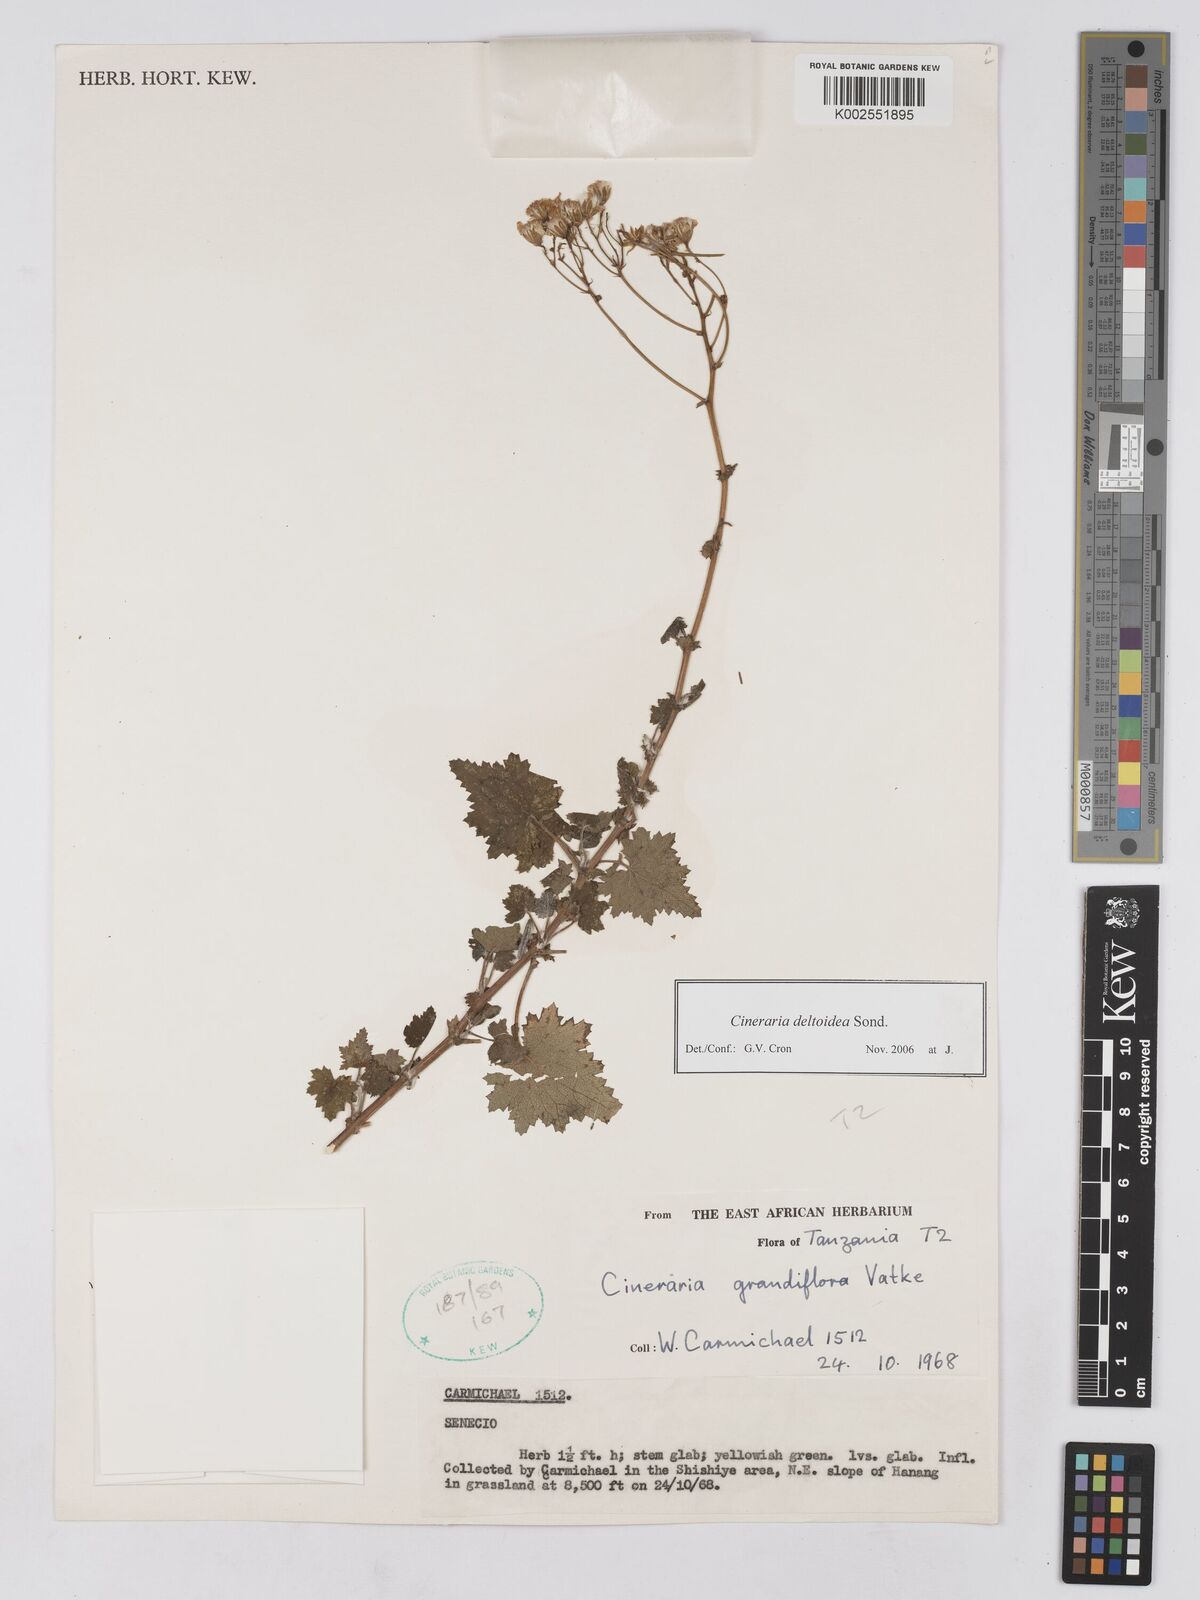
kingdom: Plantae
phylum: Tracheophyta
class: Magnoliopsida
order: Asterales
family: Asteraceae
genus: Cineraria
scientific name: Cineraria deltoidea
